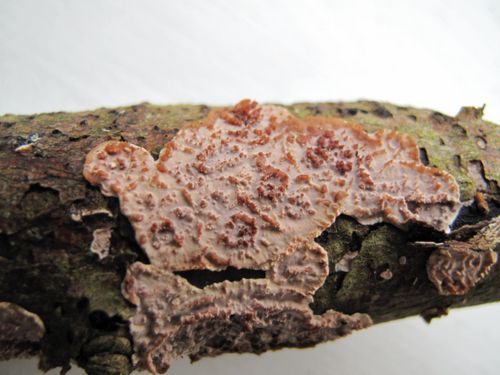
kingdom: Fungi
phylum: Basidiomycota
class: Agaricomycetes
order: Auriculariales
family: Auriculariaceae
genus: Heteroradulum
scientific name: Heteroradulum deglubens
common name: bævreskorpe
